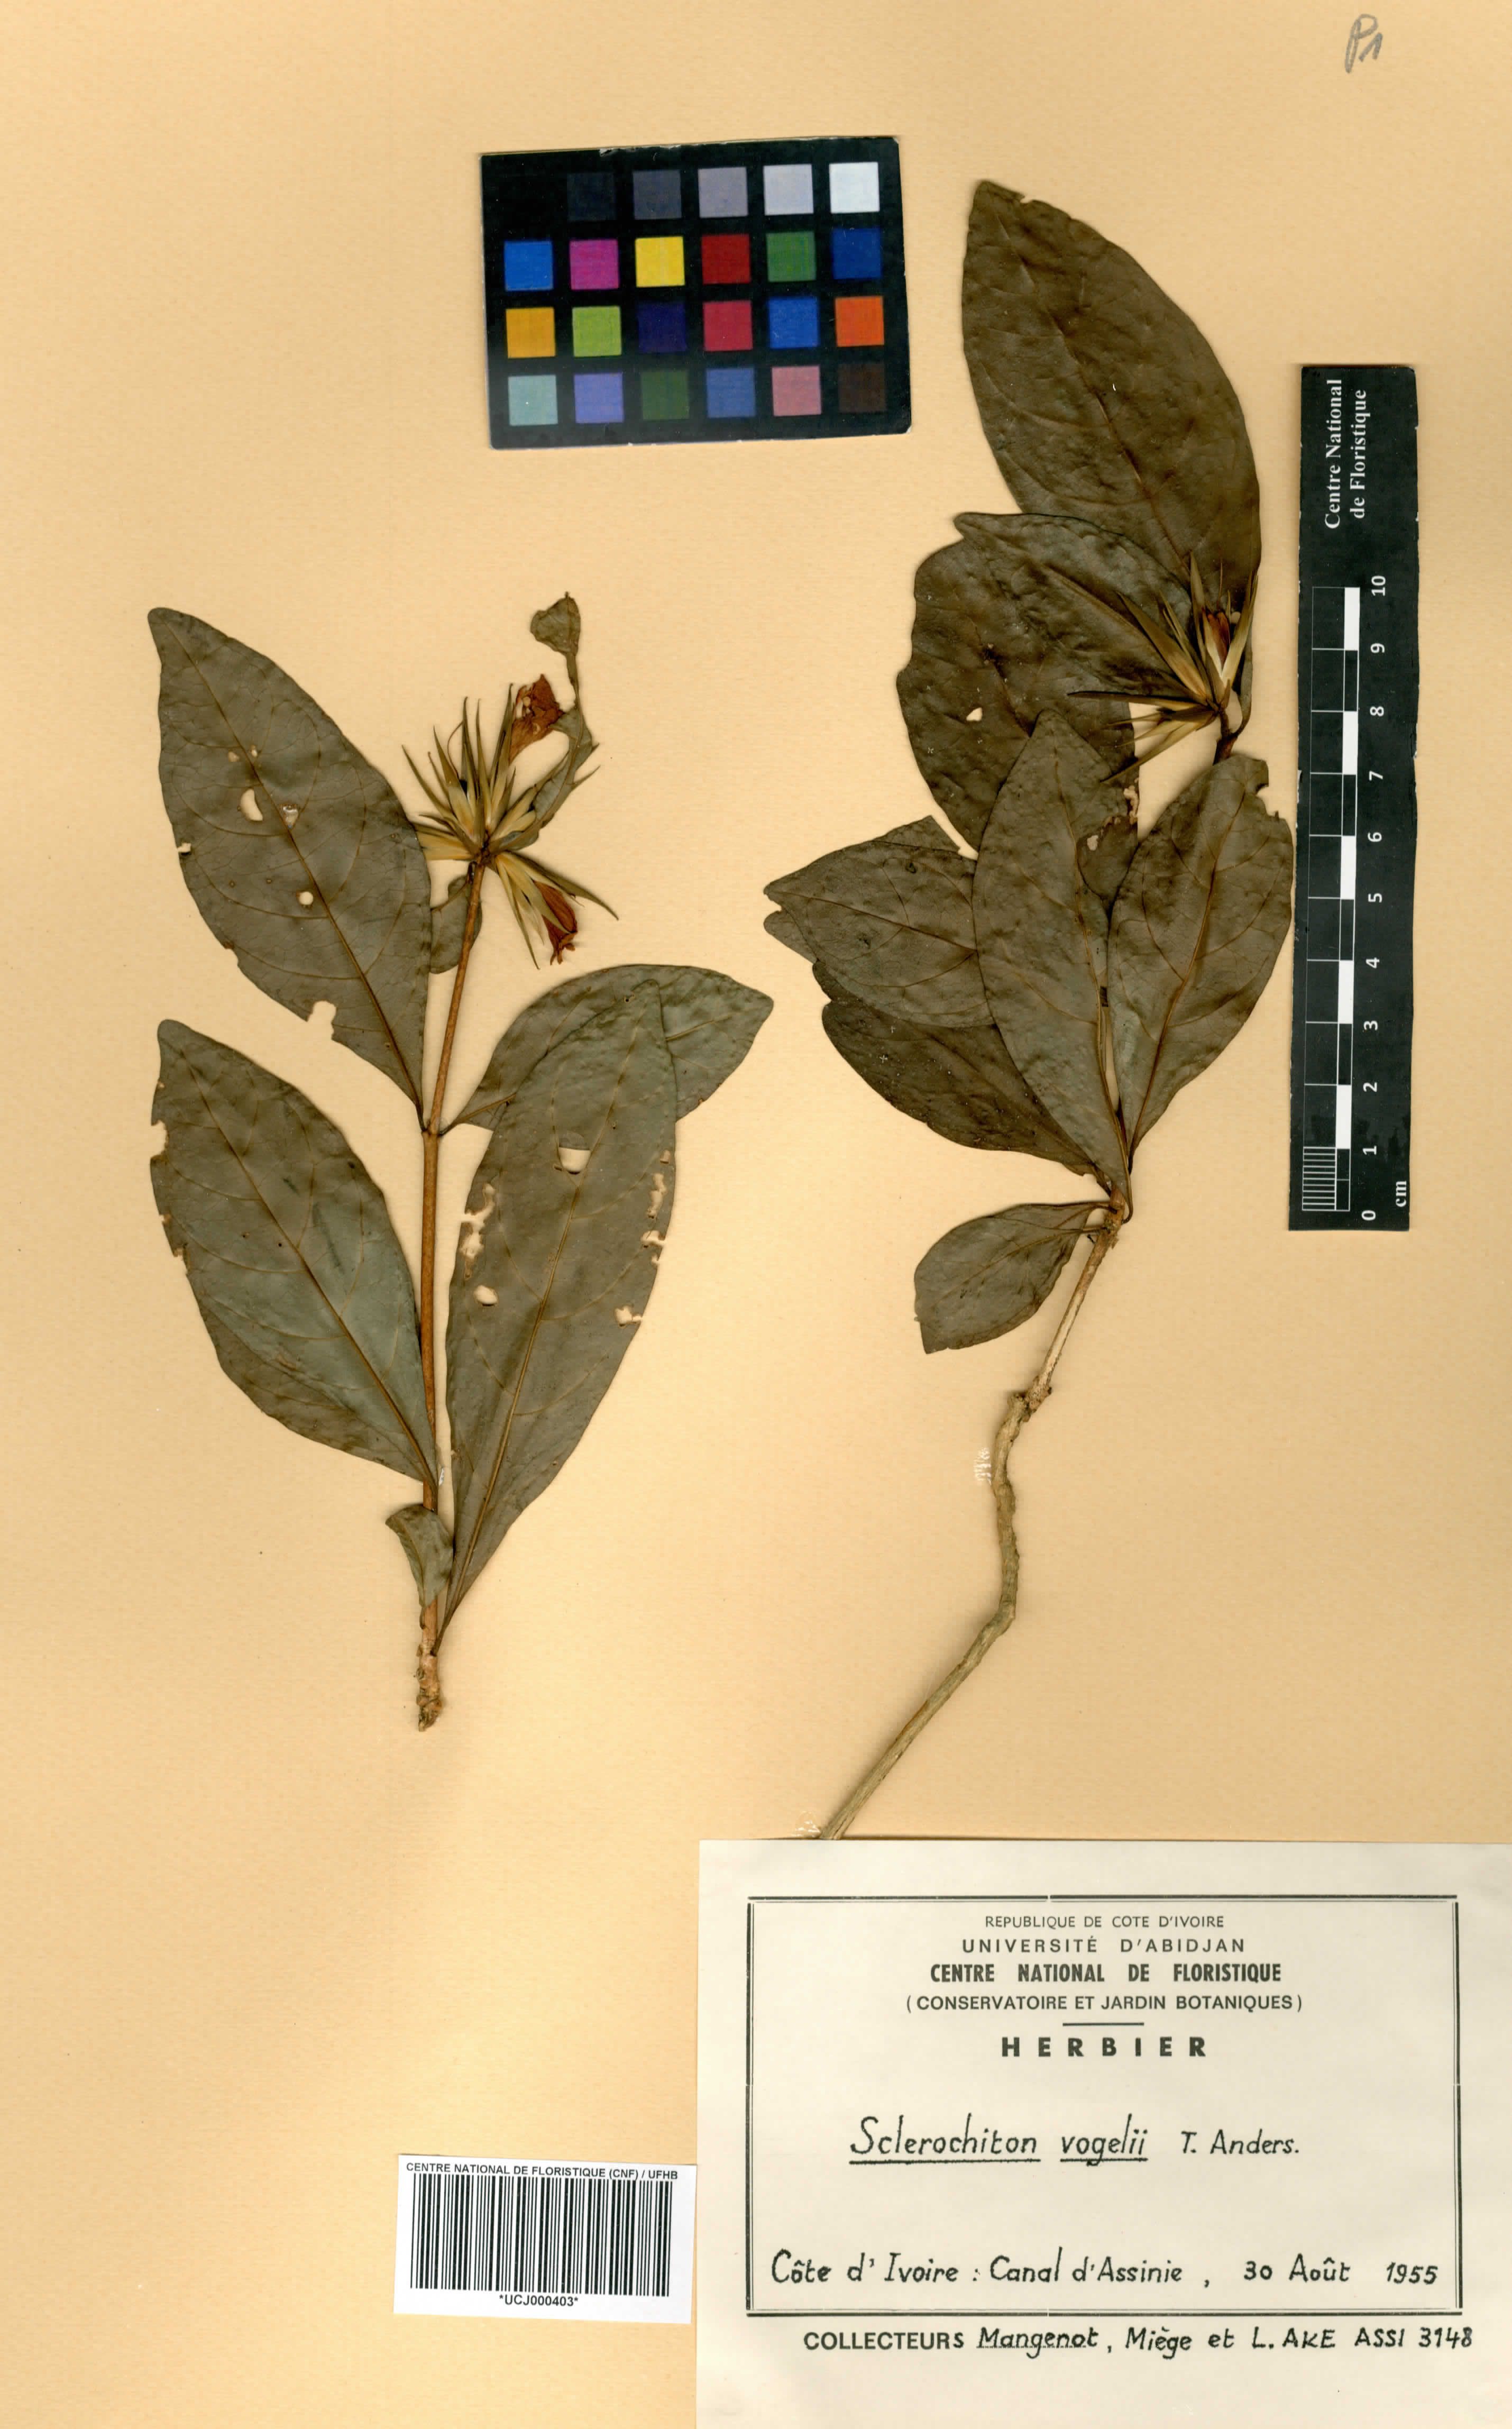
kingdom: Plantae
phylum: Tracheophyta
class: Magnoliopsida
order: Lamiales
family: Acanthaceae
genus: Sclerochiton
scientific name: Sclerochiton vogelii
